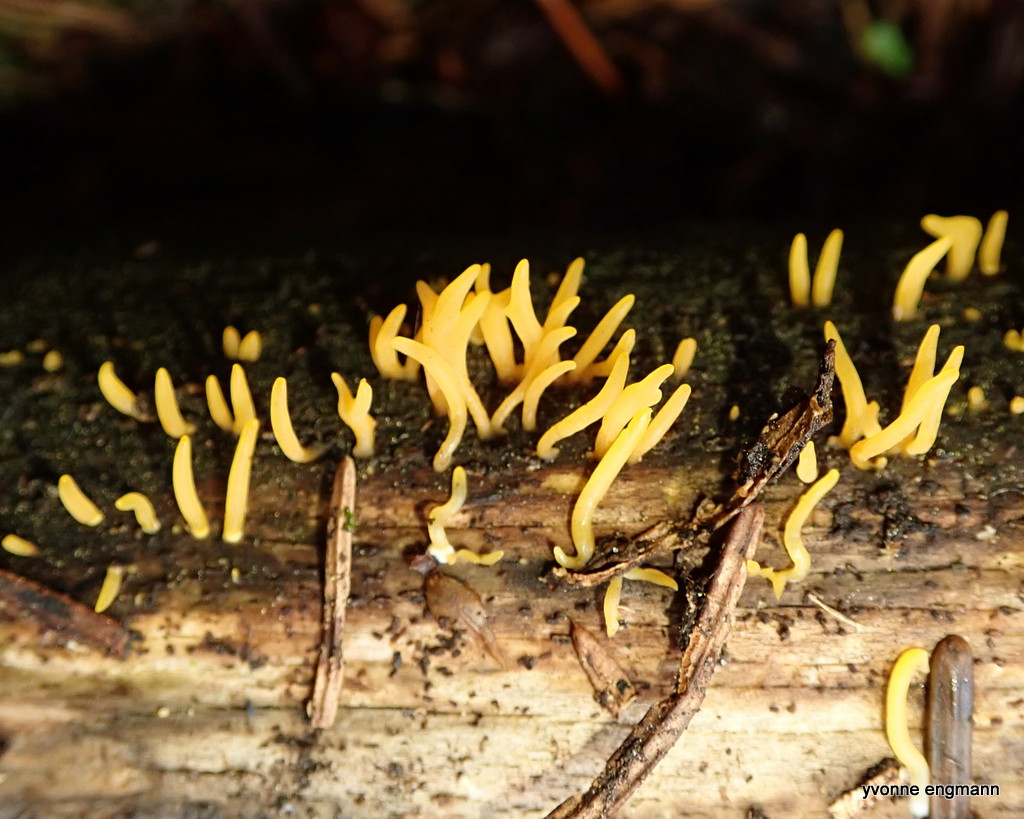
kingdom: Fungi
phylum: Basidiomycota
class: Dacrymycetes
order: Dacrymycetales
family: Dacrymycetaceae
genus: Calocera
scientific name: Calocera cornea
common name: liden guldgaffel
